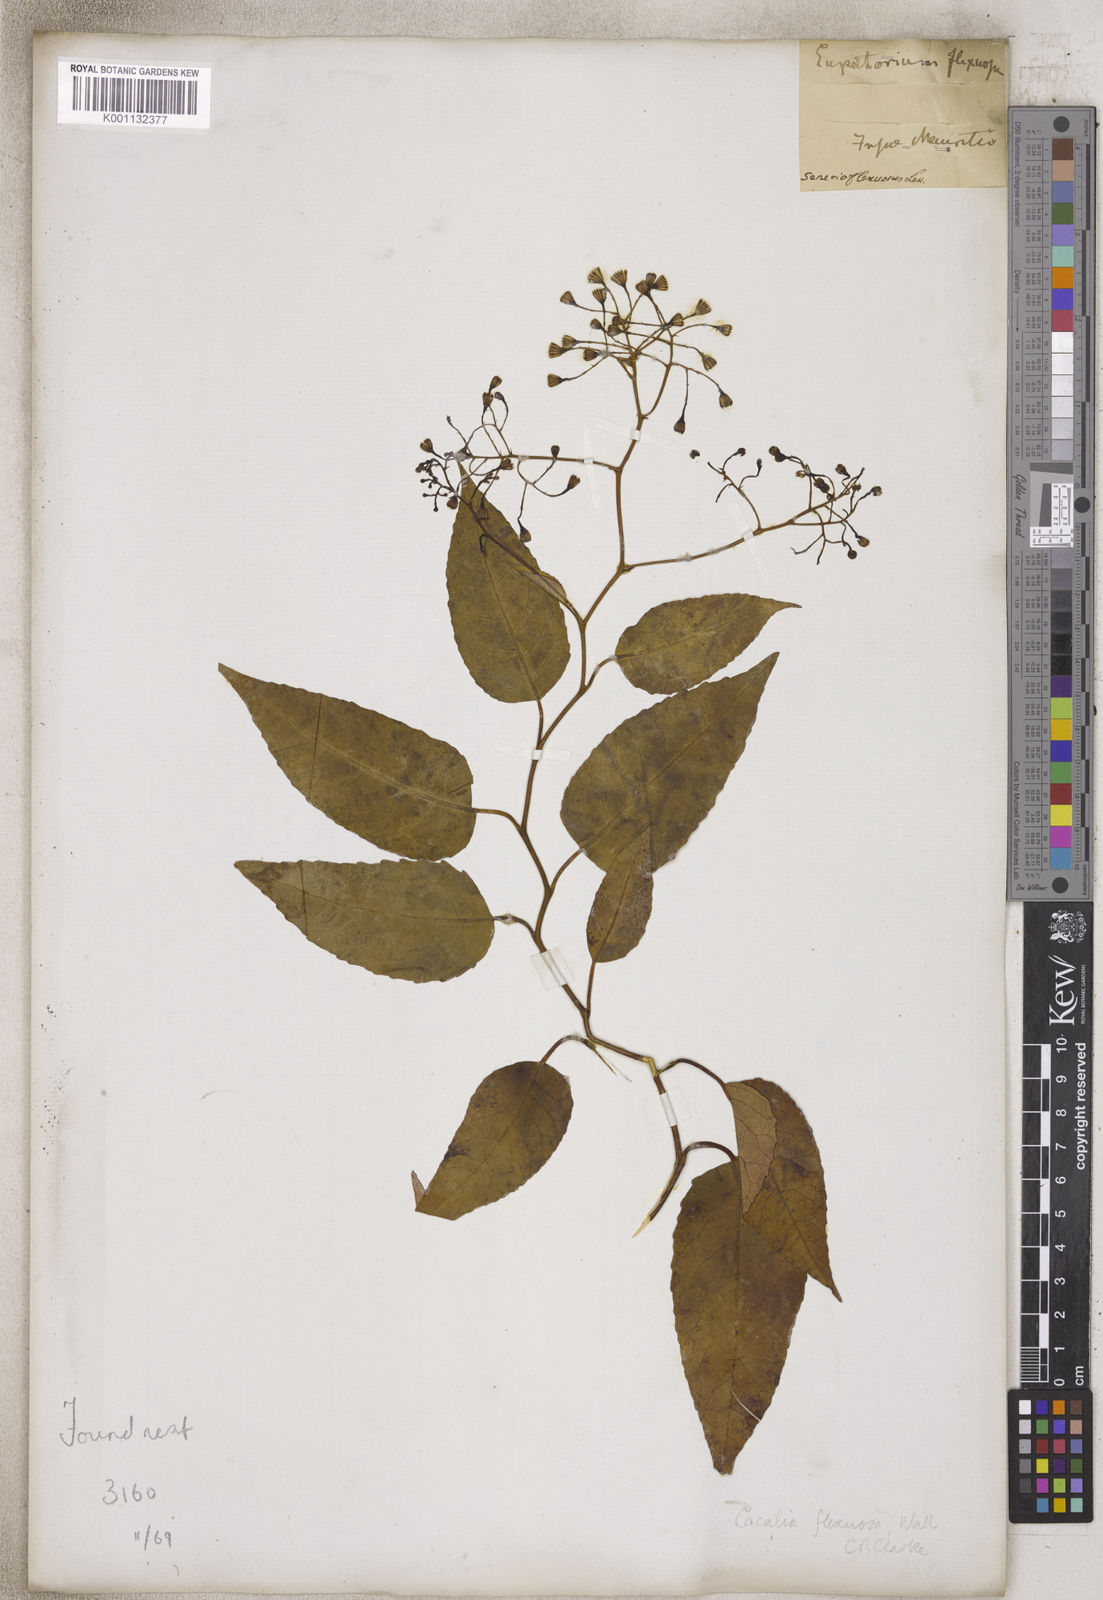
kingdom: Plantae
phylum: Tracheophyta
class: Magnoliopsida
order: Asterales
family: Asteraceae
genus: Adenostyles
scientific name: Adenostyles Cacalia scandens
